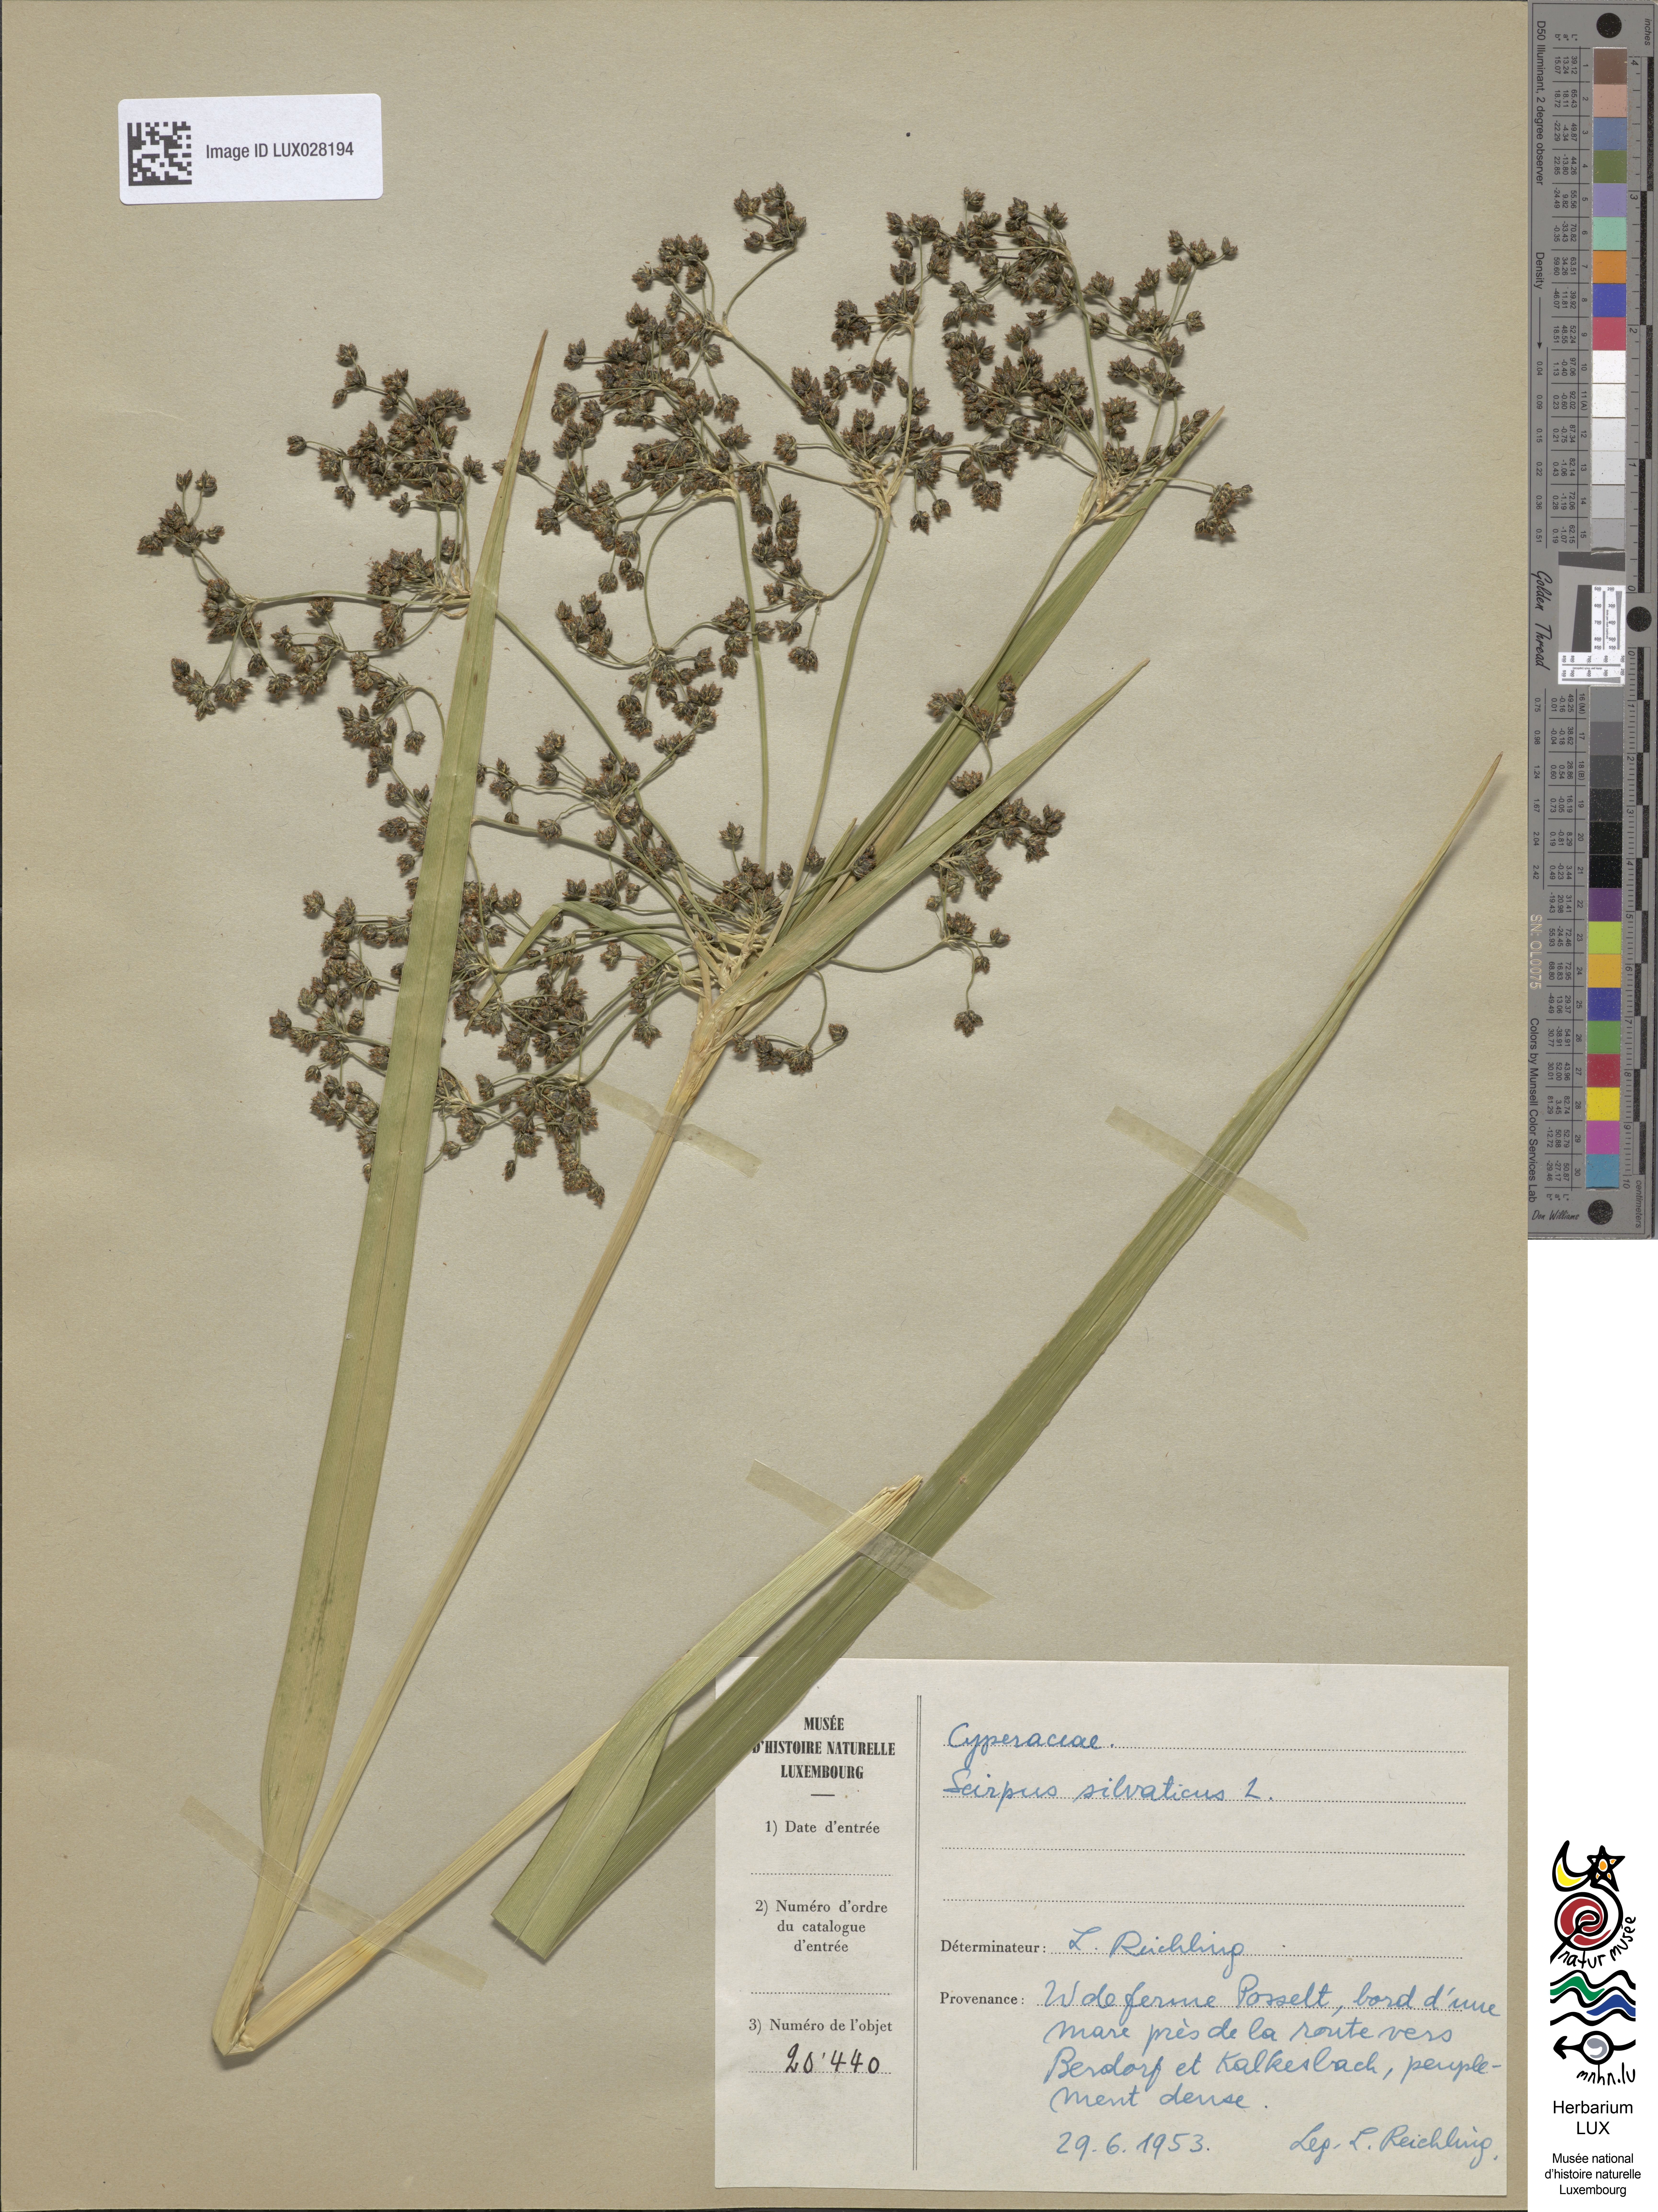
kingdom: Plantae
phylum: Tracheophyta
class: Liliopsida
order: Poales
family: Cyperaceae
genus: Scirpus
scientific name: Scirpus sylvaticus
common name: Wood club-rush
